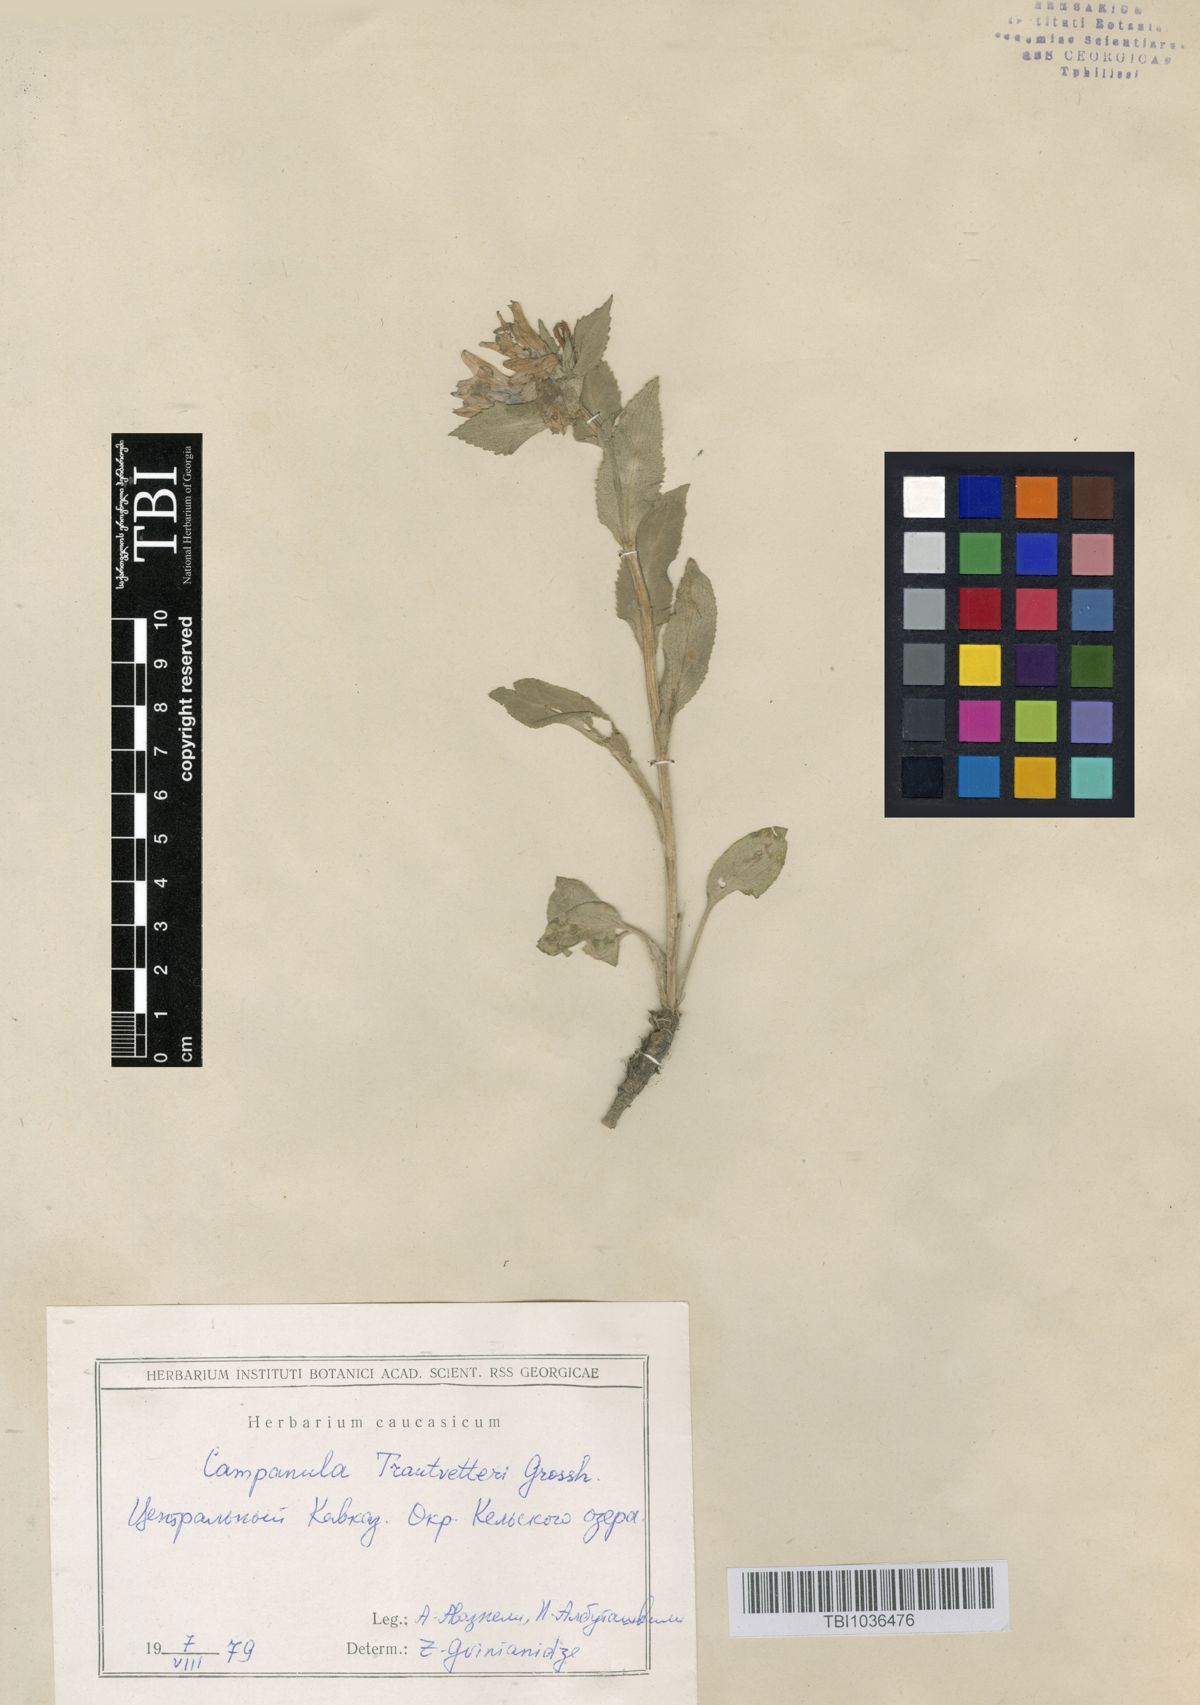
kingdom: Plantae
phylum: Tracheophyta
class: Magnoliopsida
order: Asterales
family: Campanulaceae
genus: Campanula
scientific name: Campanula glomerata
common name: Clustered bellflower
